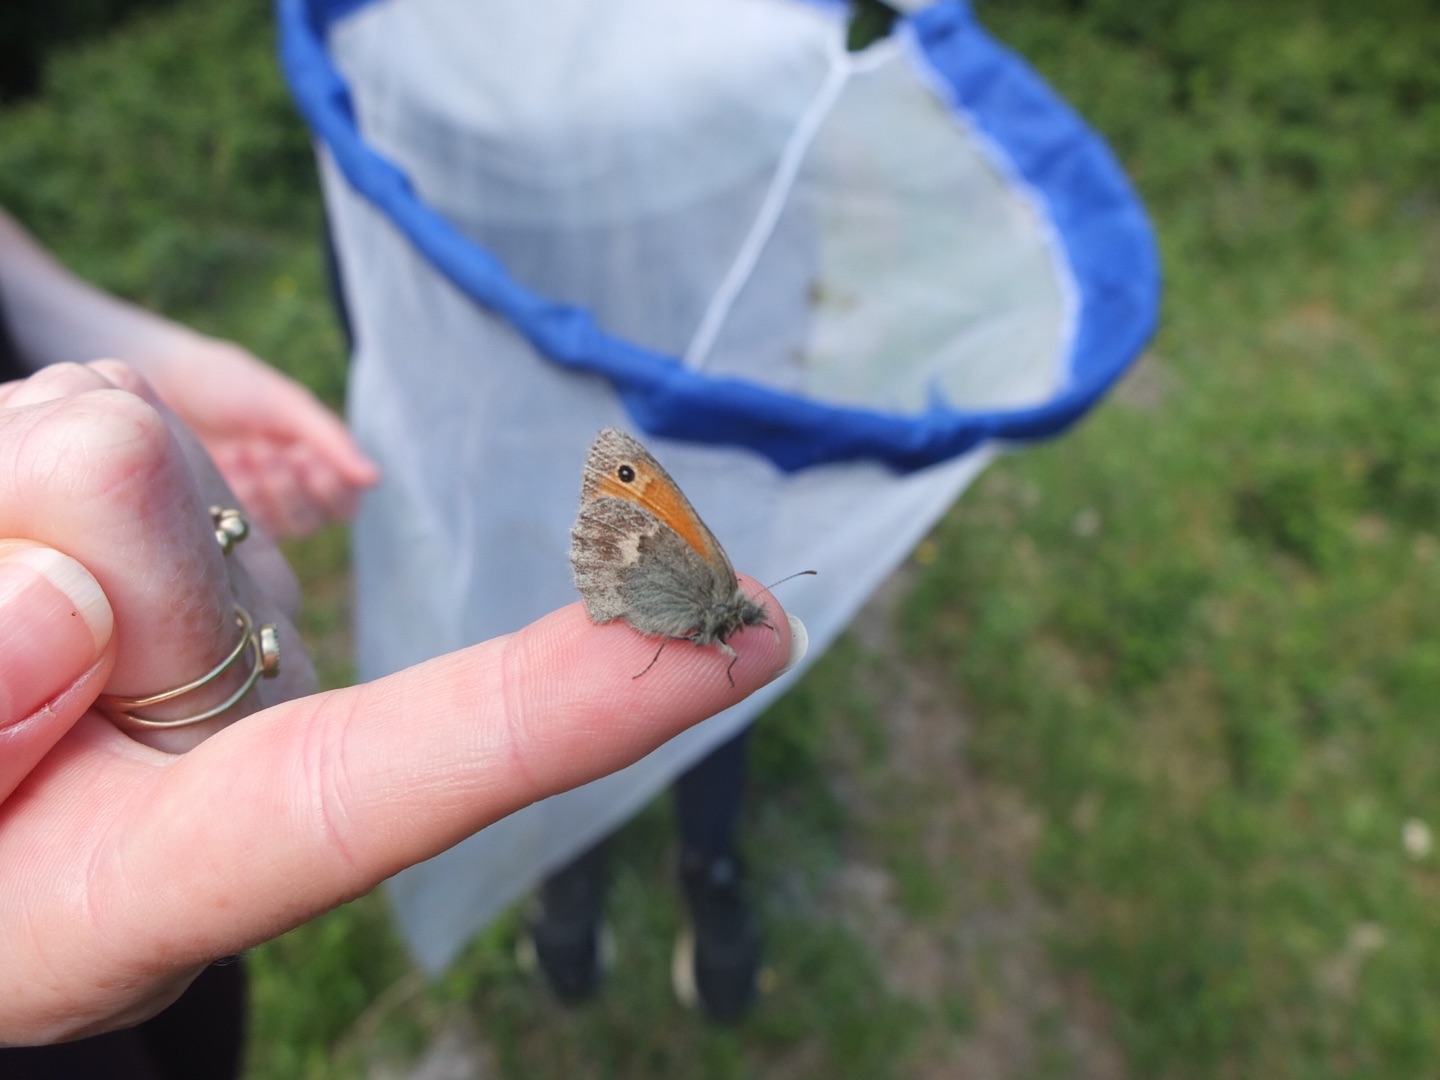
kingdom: Animalia
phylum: Arthropoda
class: Insecta
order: Lepidoptera
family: Nymphalidae
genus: Coenonympha
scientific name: Coenonympha pamphilus
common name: Okkergul randøje
